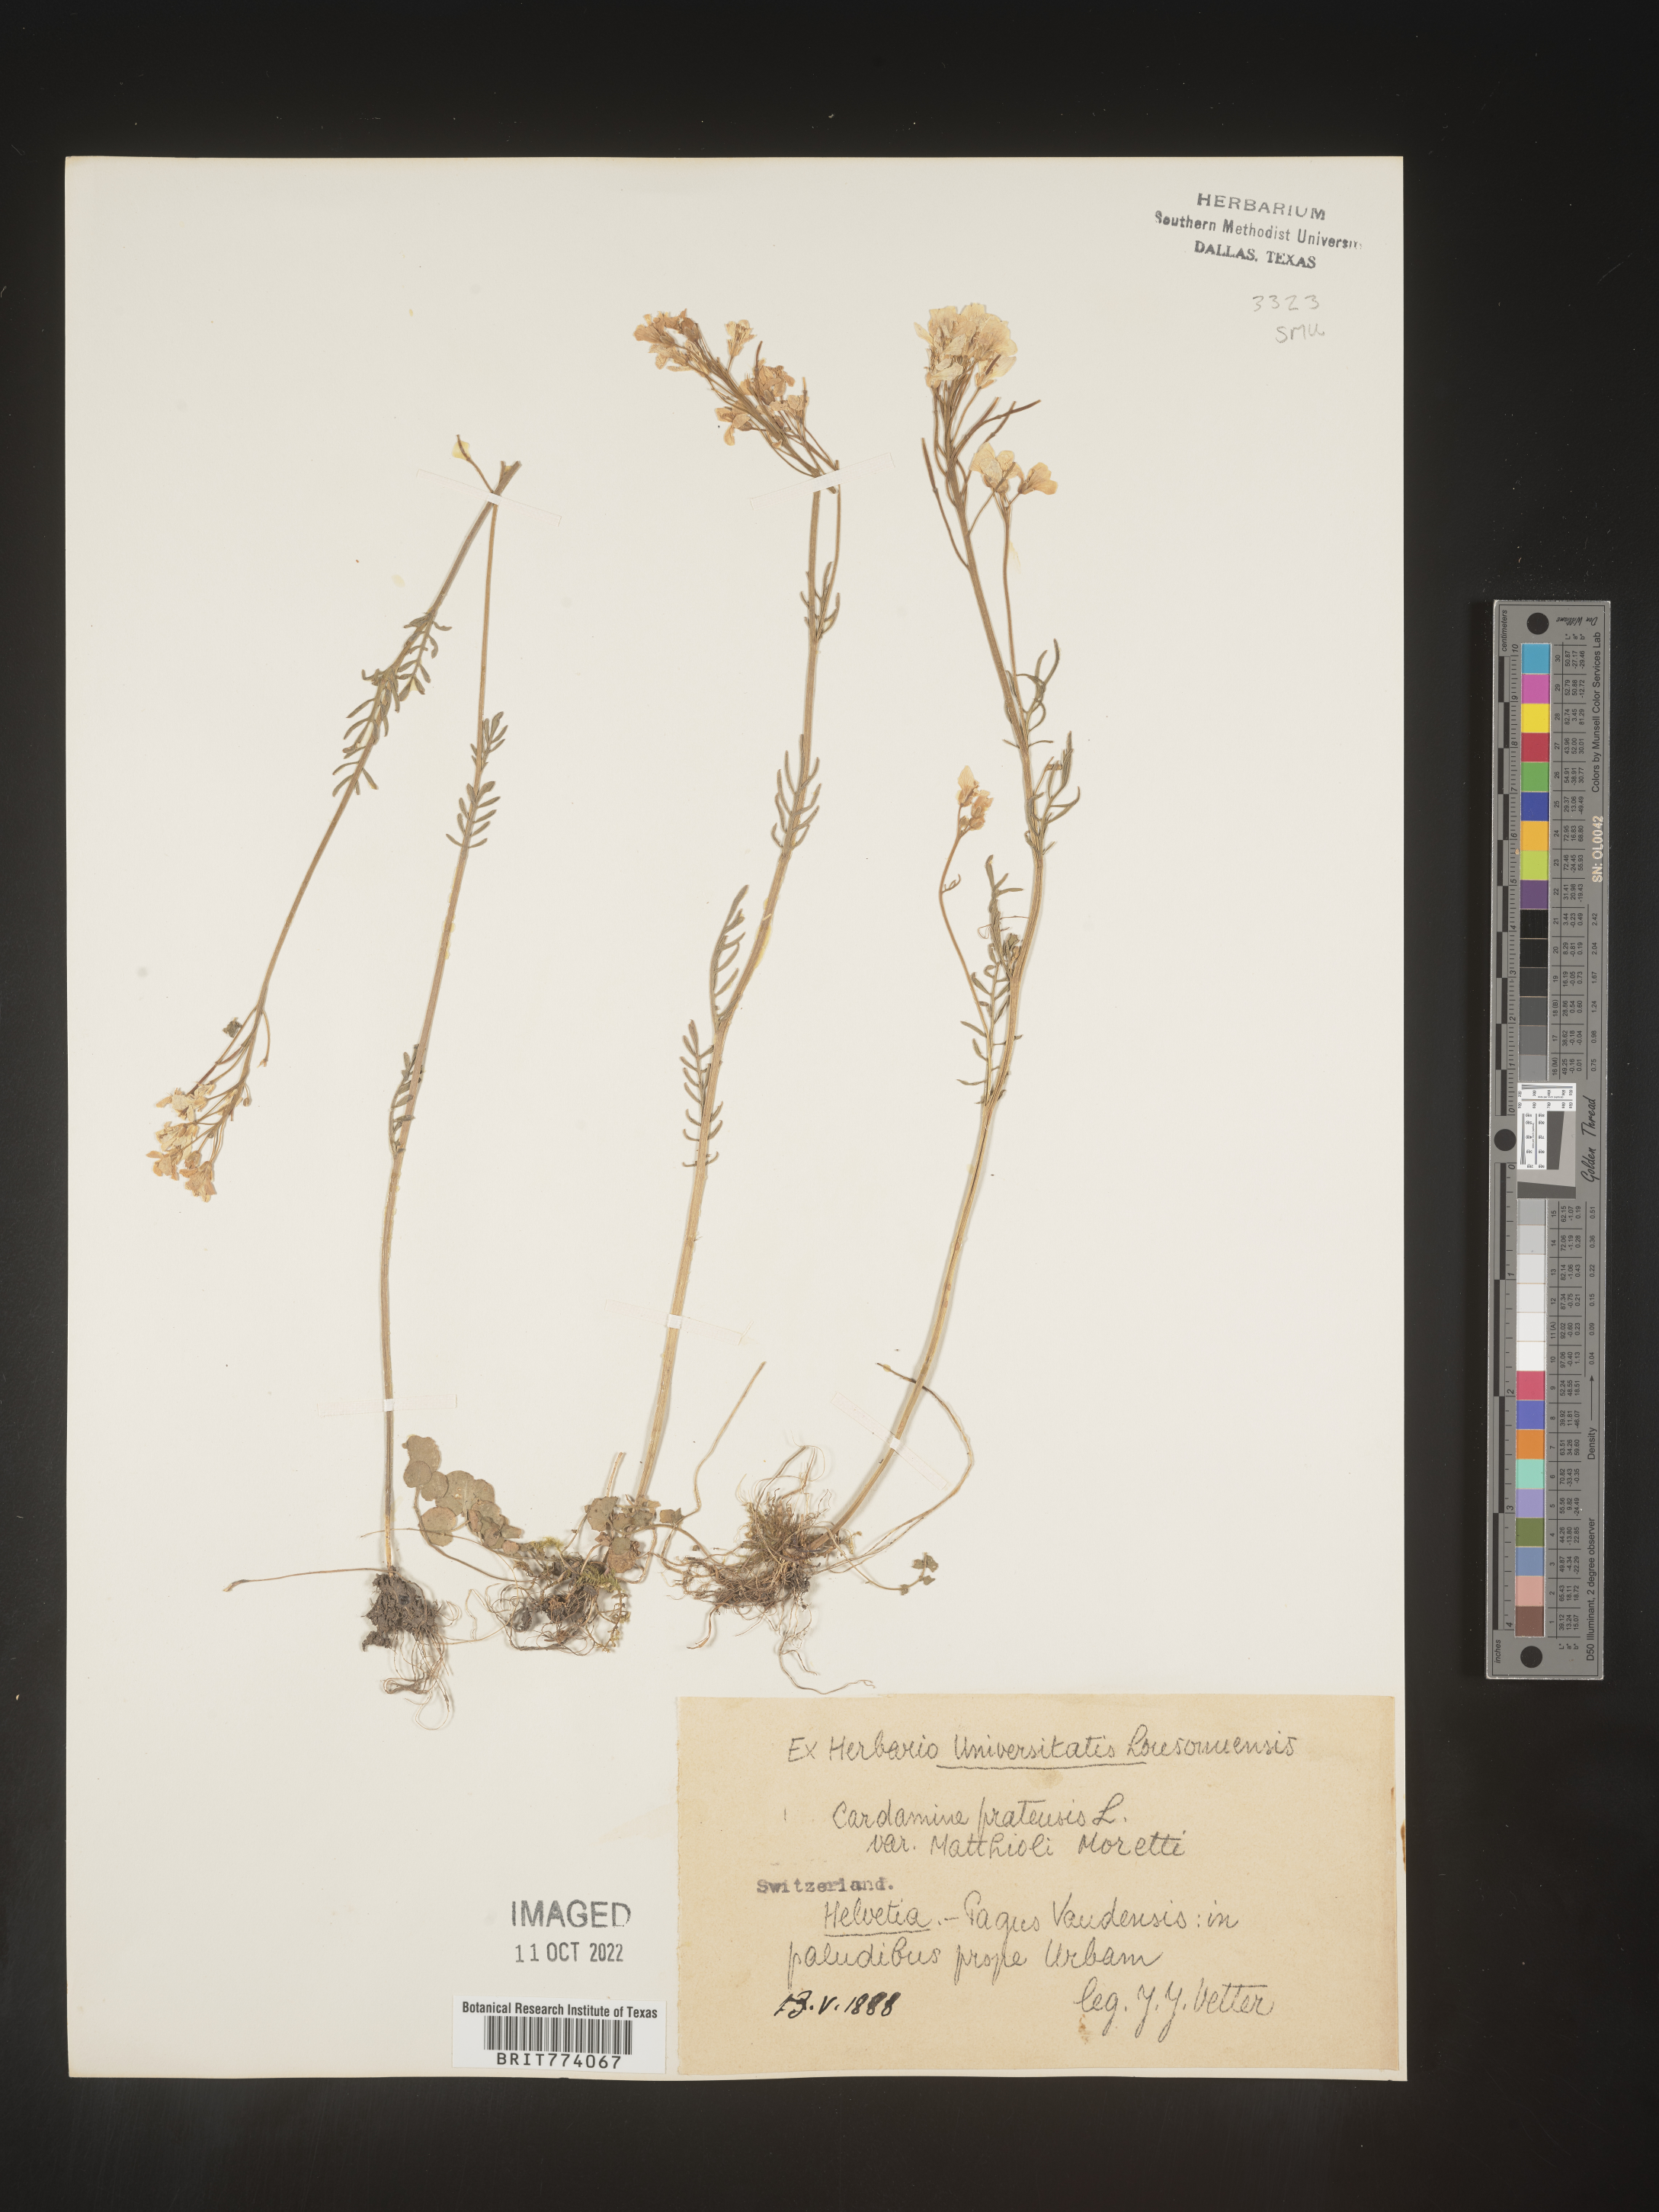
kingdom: Plantae
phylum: Tracheophyta
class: Magnoliopsida
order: Brassicales
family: Brassicaceae
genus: Cardamine
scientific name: Cardamine pratensis
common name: Cuckoo flower
